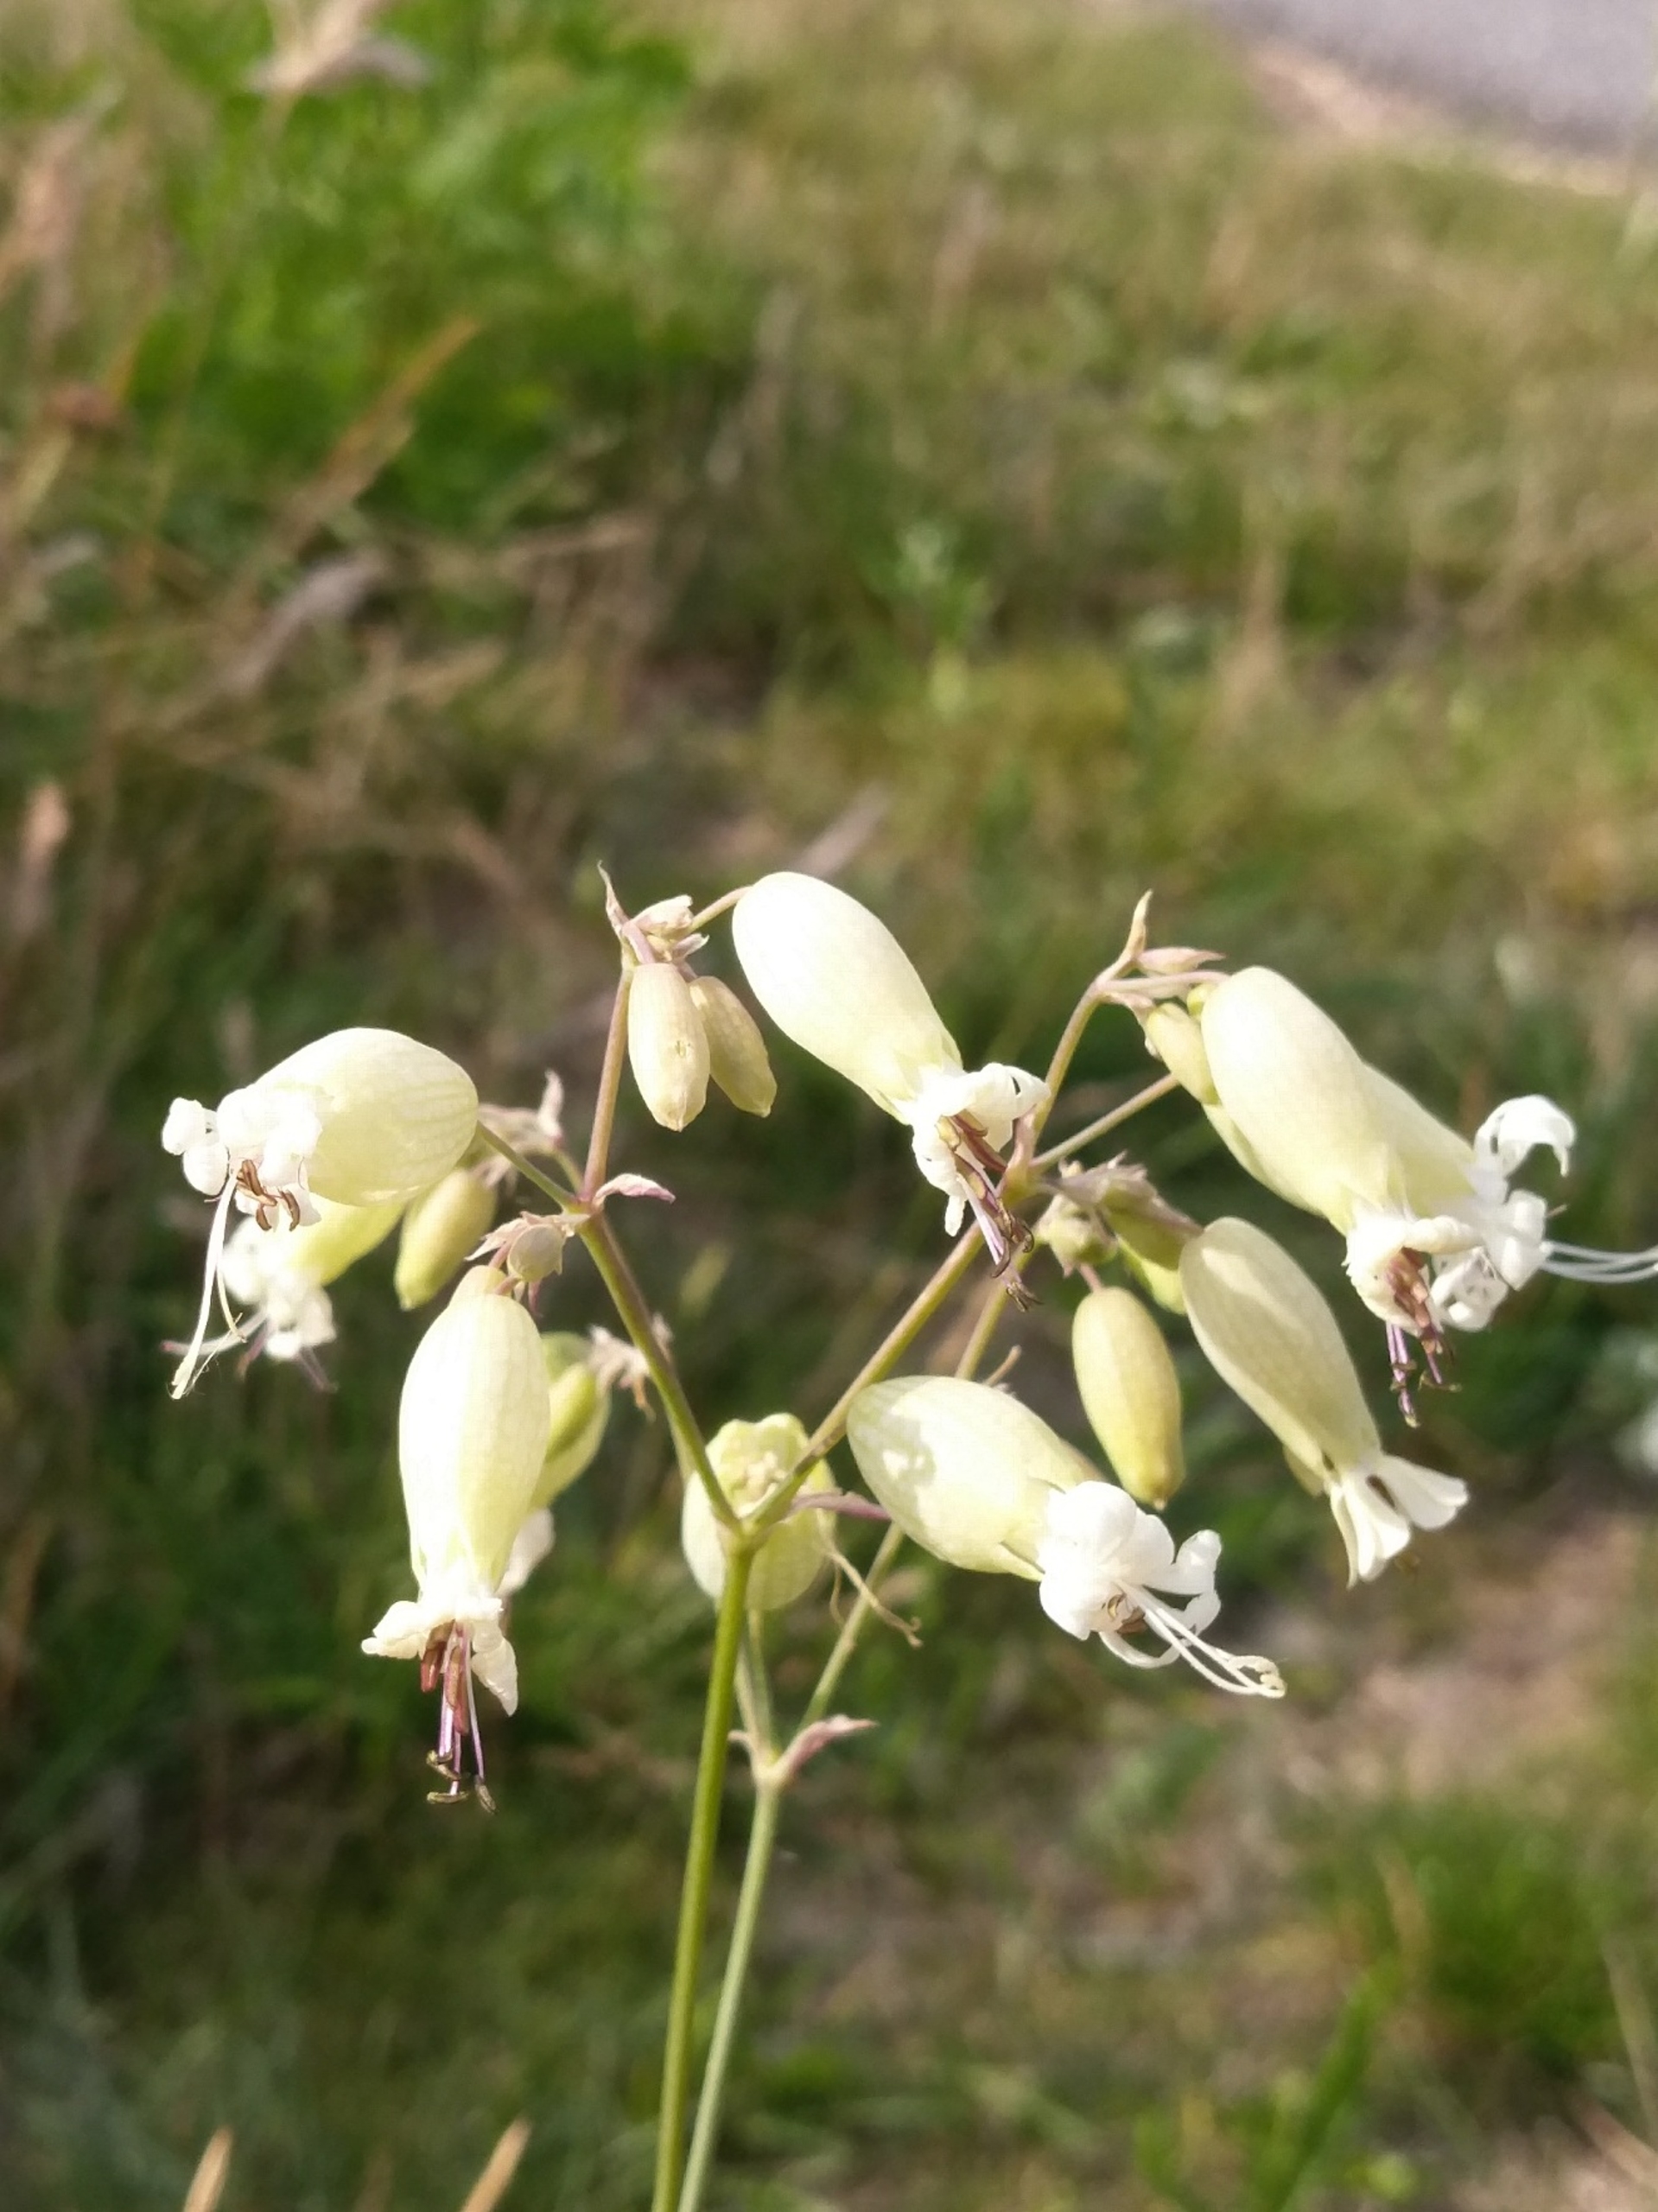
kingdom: Plantae
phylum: Tracheophyta
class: Magnoliopsida
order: Caryophyllales
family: Caryophyllaceae
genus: Silene
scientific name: Silene vulgaris
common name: Blæresmælde
